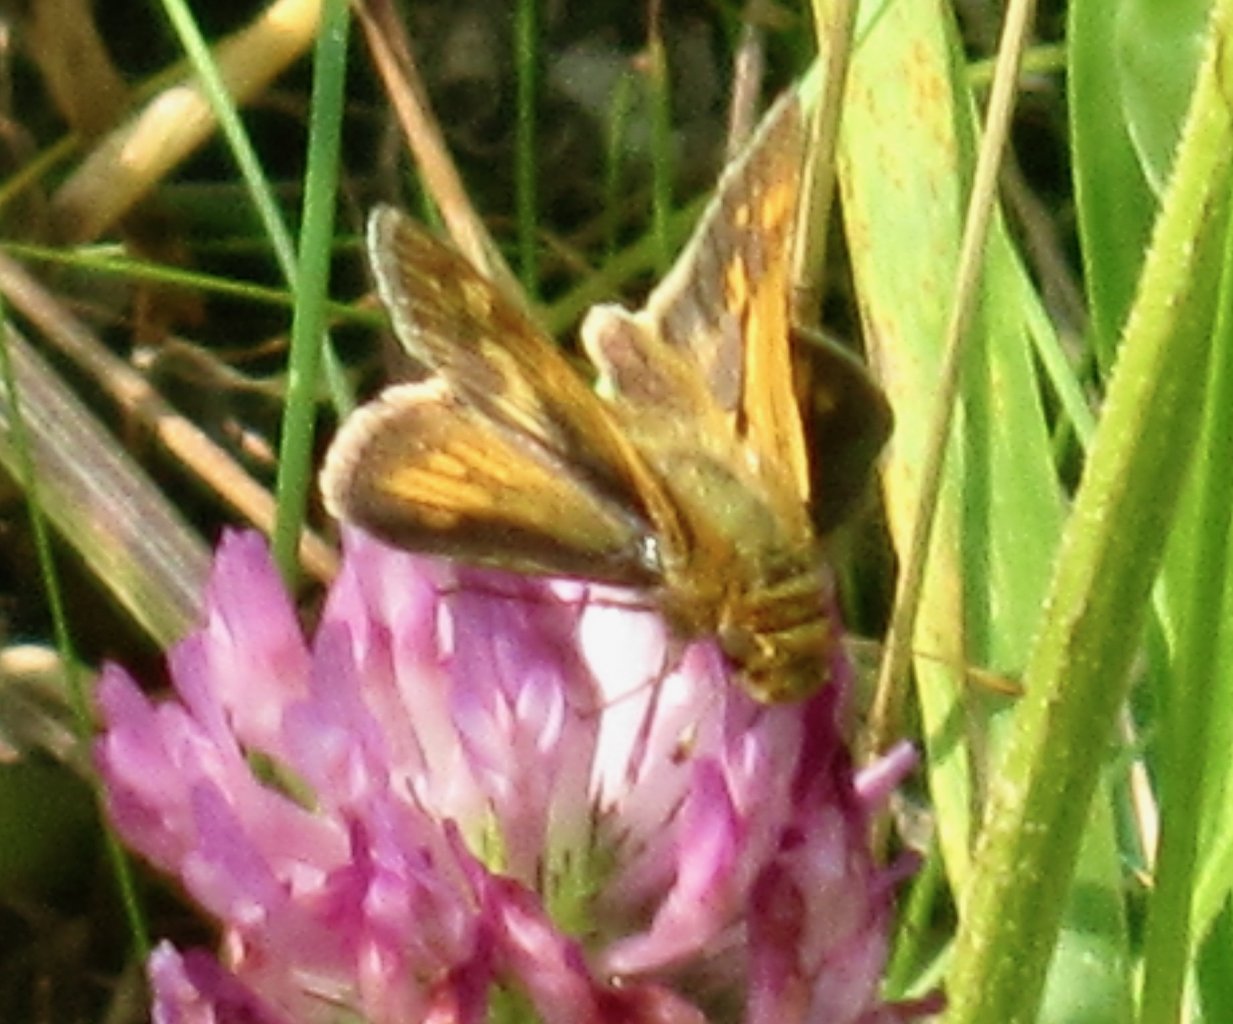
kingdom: Animalia
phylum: Arthropoda
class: Insecta
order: Lepidoptera
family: Hesperiidae
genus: Polites
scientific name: Polites coras
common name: Peck's Skipper
